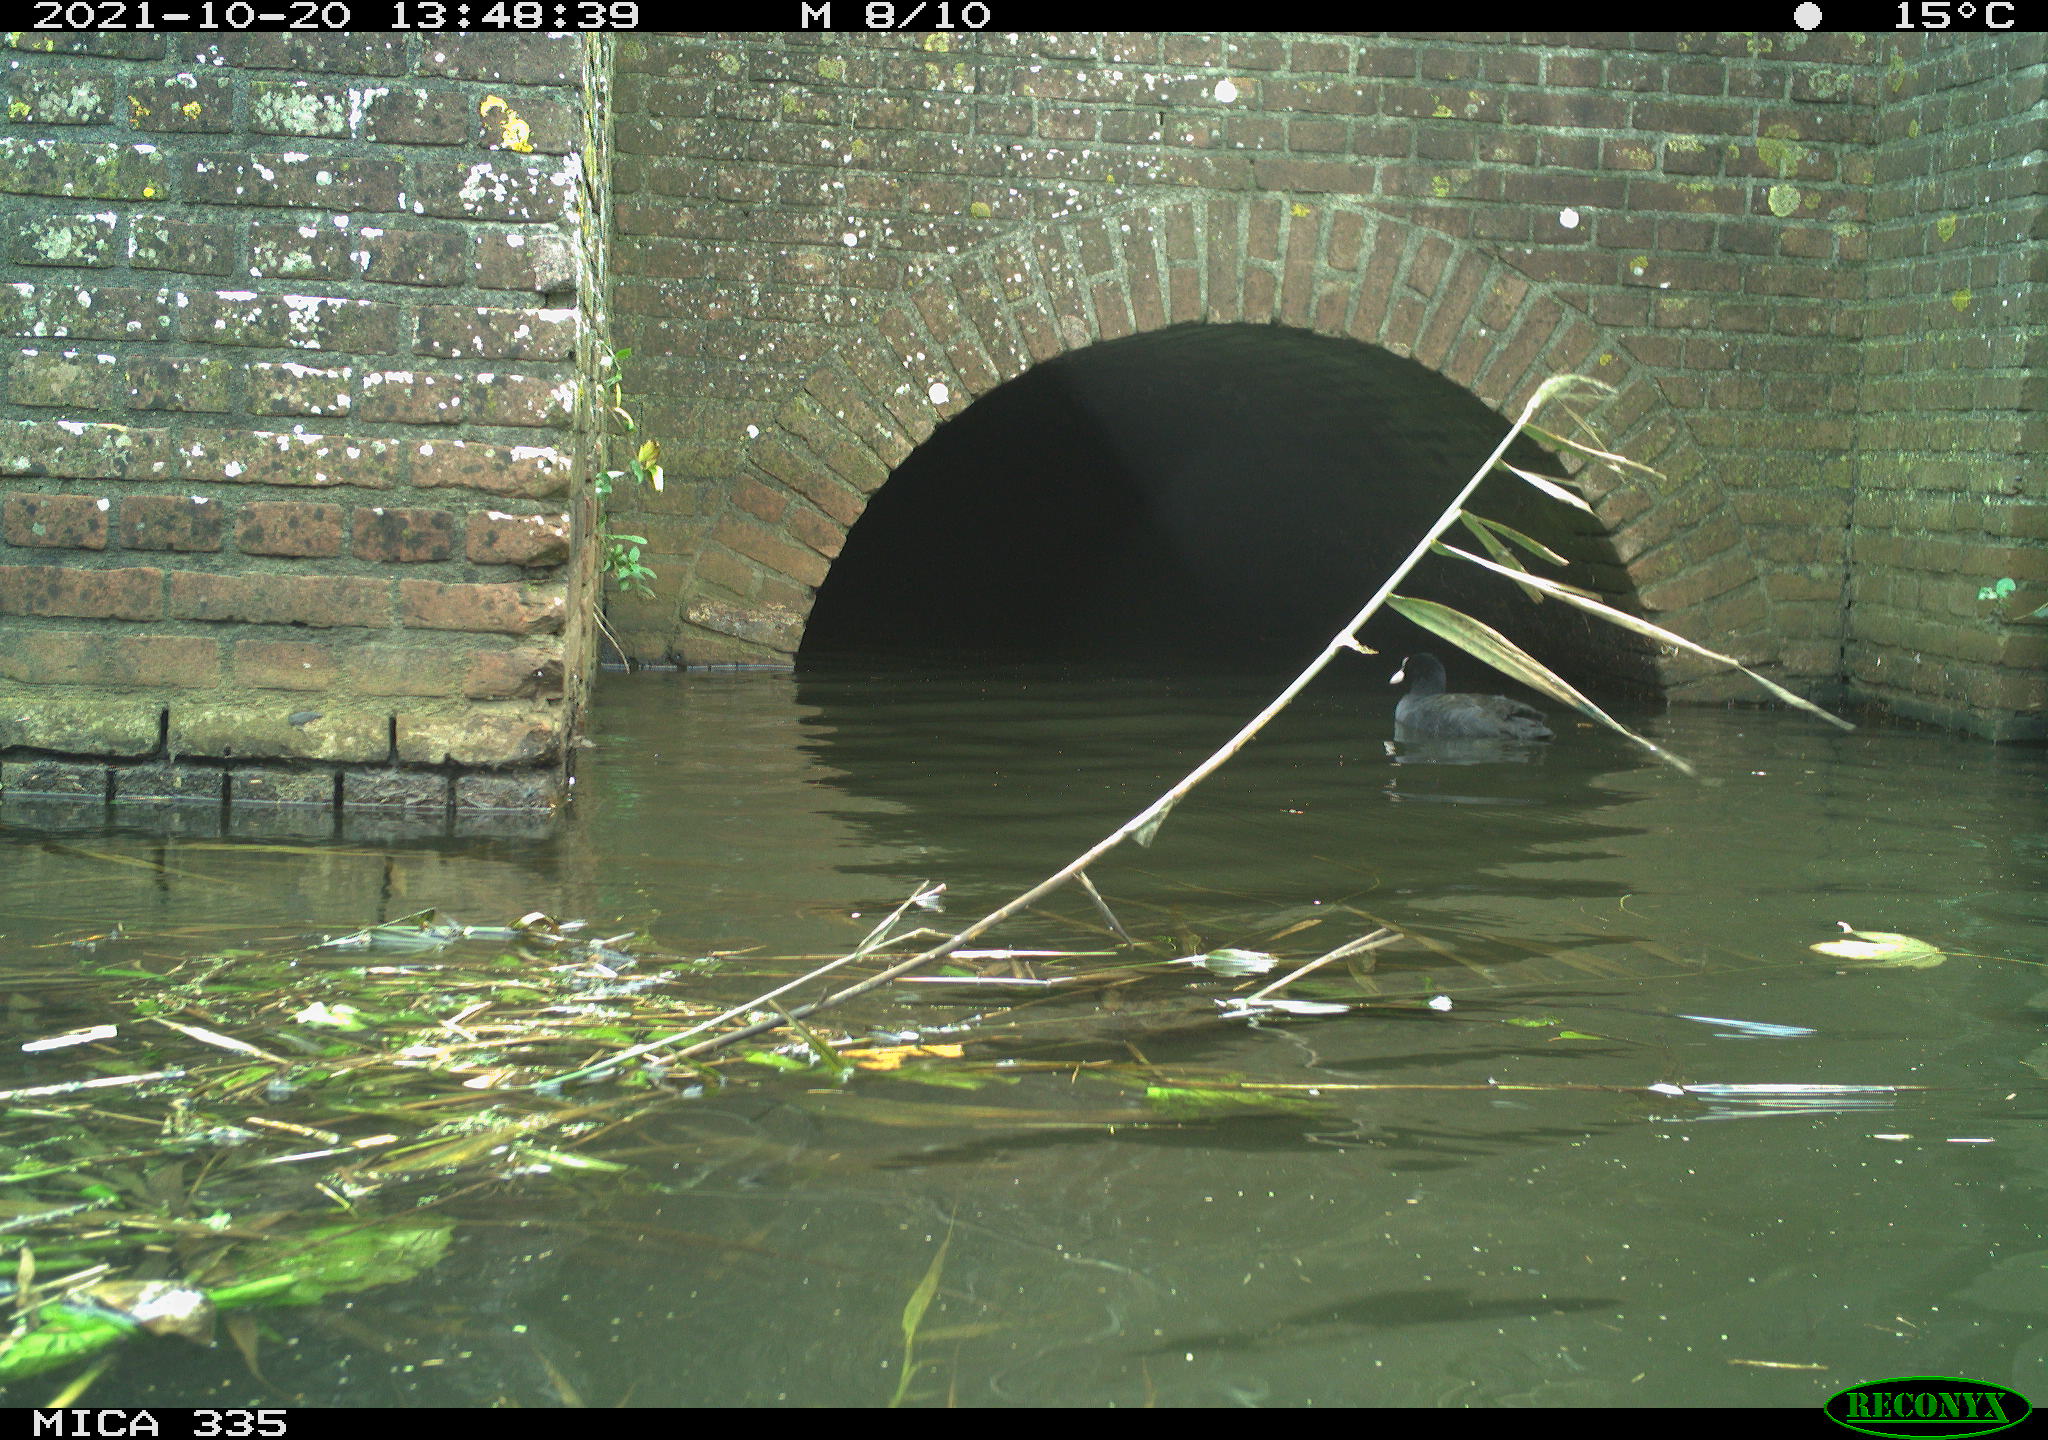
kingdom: Animalia
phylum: Chordata
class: Aves
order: Gruiformes
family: Rallidae
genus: Fulica
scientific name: Fulica atra
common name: Eurasian coot
